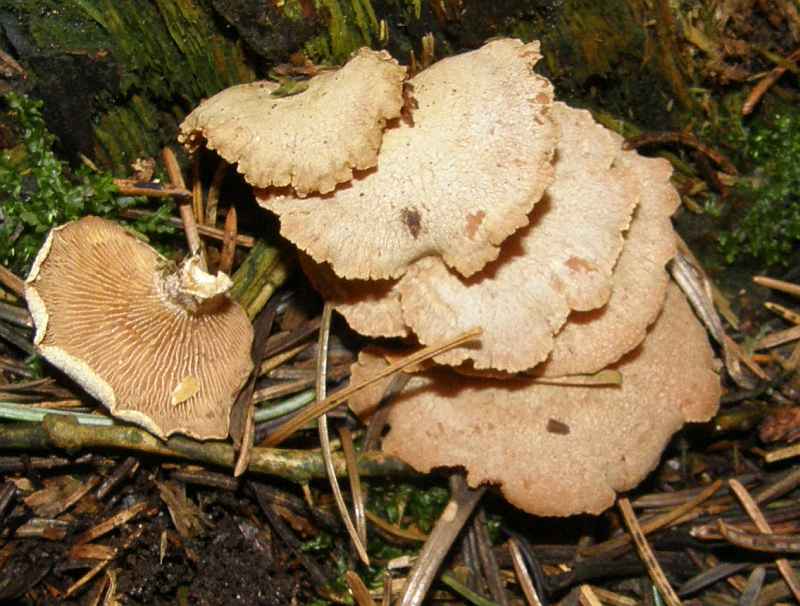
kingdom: Fungi
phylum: Basidiomycota
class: Agaricomycetes
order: Agaricales
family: Mycenaceae
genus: Panellus
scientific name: Panellus stipticus
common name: kliddet epaulethat
